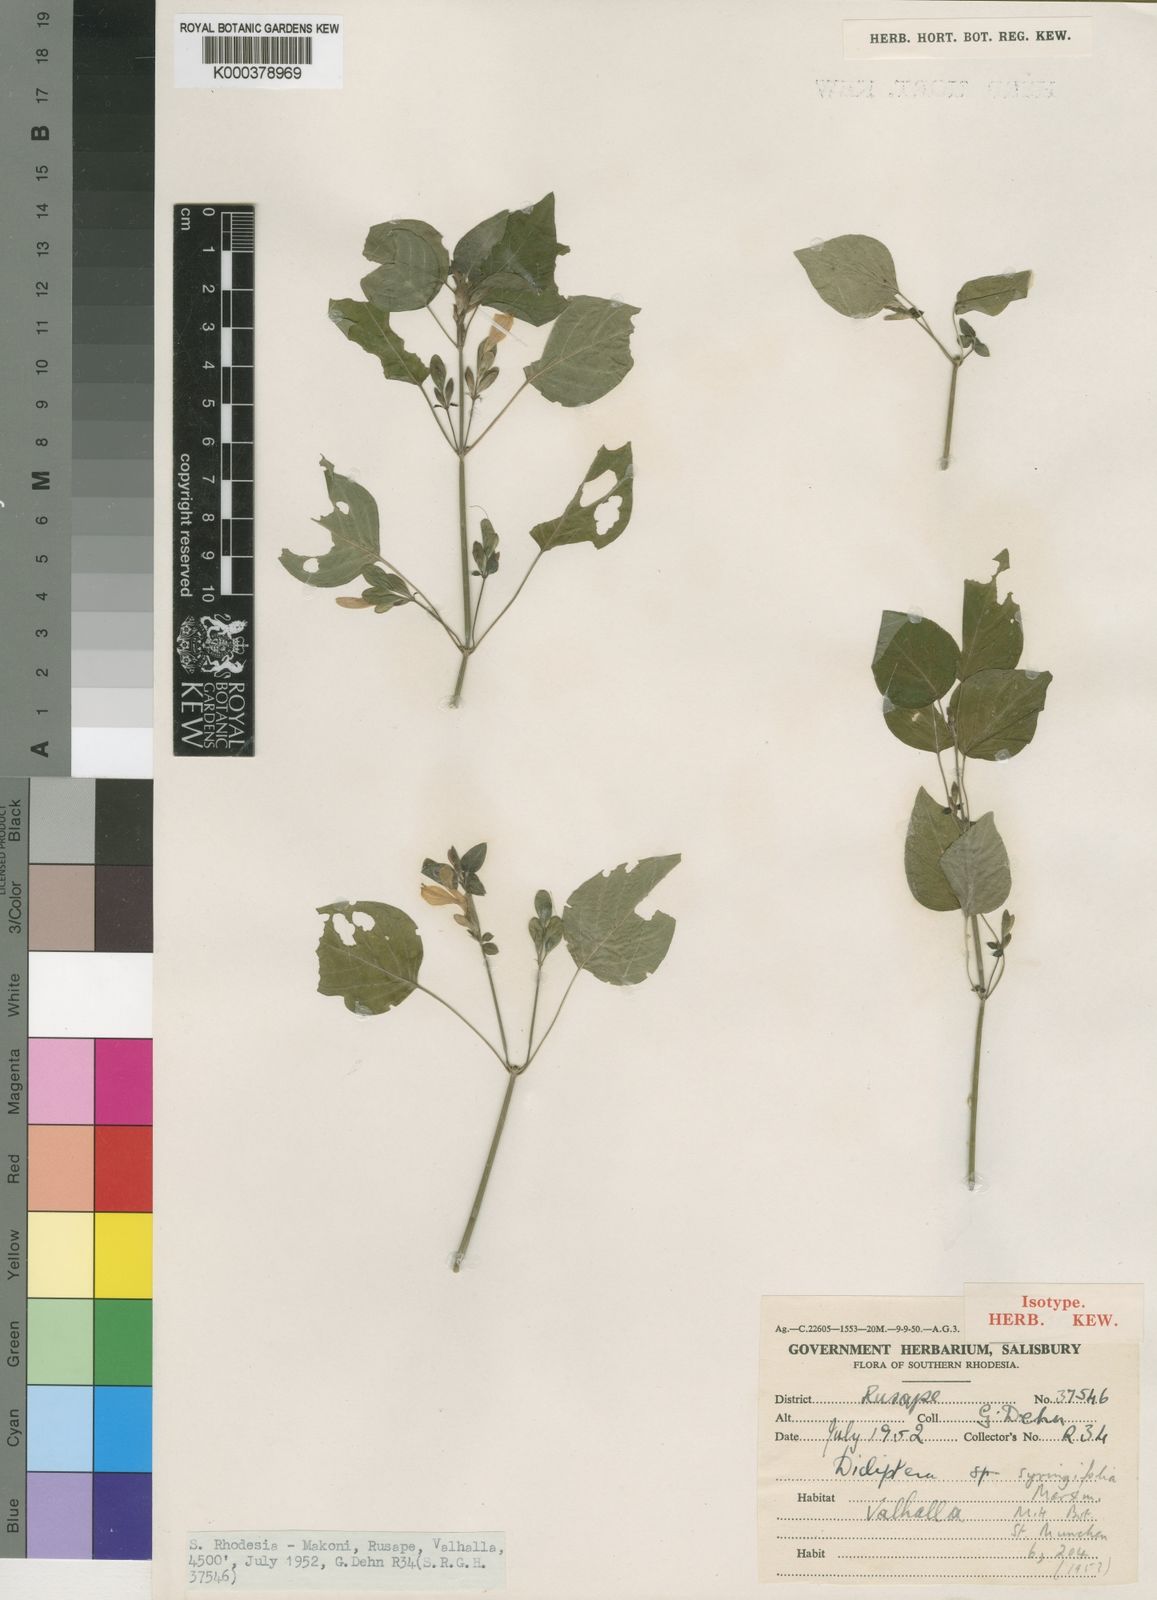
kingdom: Plantae
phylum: Tracheophyta
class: Magnoliopsida
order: Lamiales
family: Acanthaceae
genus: Dicliptera
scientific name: Dicliptera syringifolia
